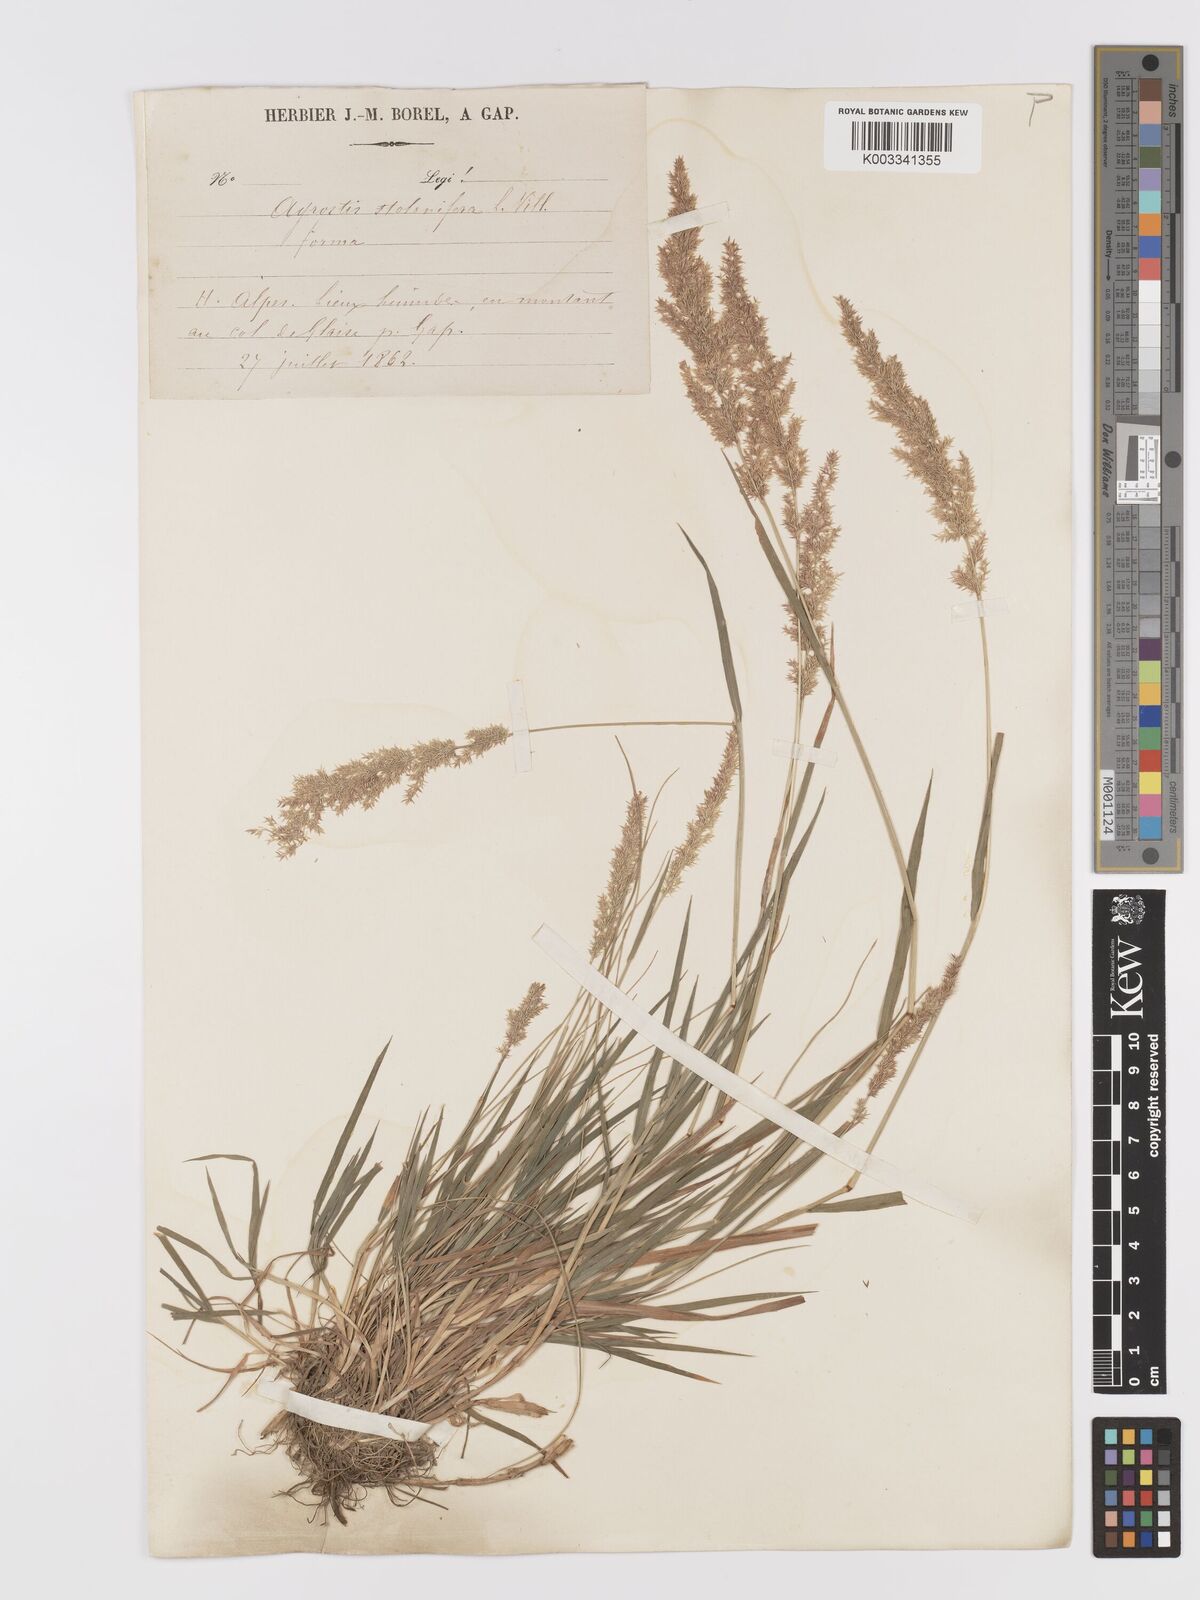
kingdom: Plantae
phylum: Tracheophyta
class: Liliopsida
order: Poales
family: Poaceae
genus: Agrostis
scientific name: Agrostis gigantea
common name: Black bent
